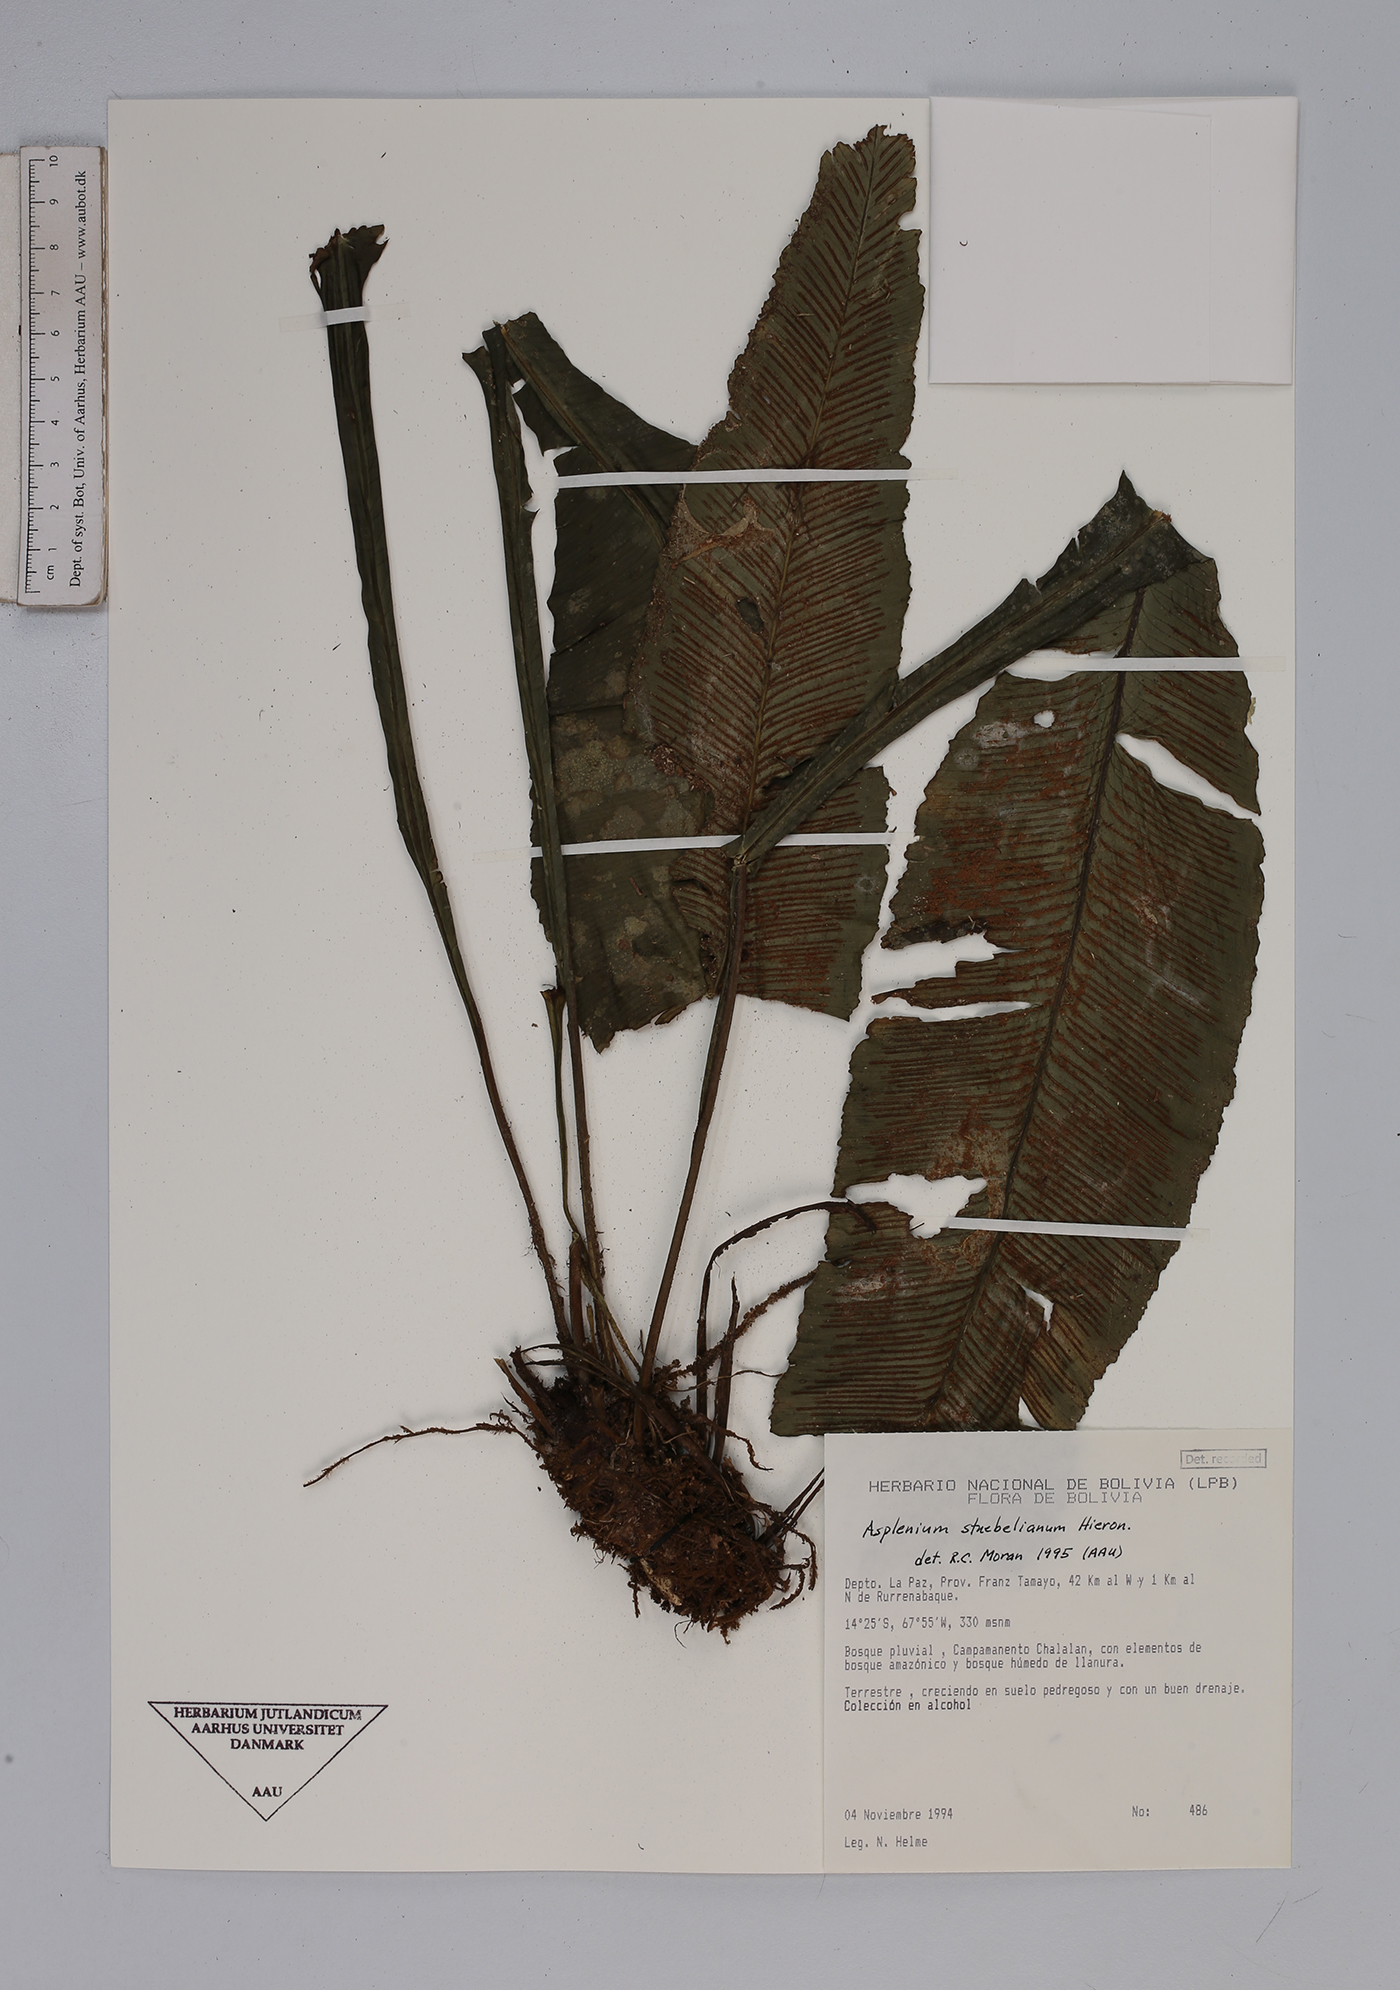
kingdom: Plantae
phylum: Tracheophyta
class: Polypodiopsida
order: Polypodiales
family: Aspleniaceae
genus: Asplenium
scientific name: Asplenium stuebelianum
